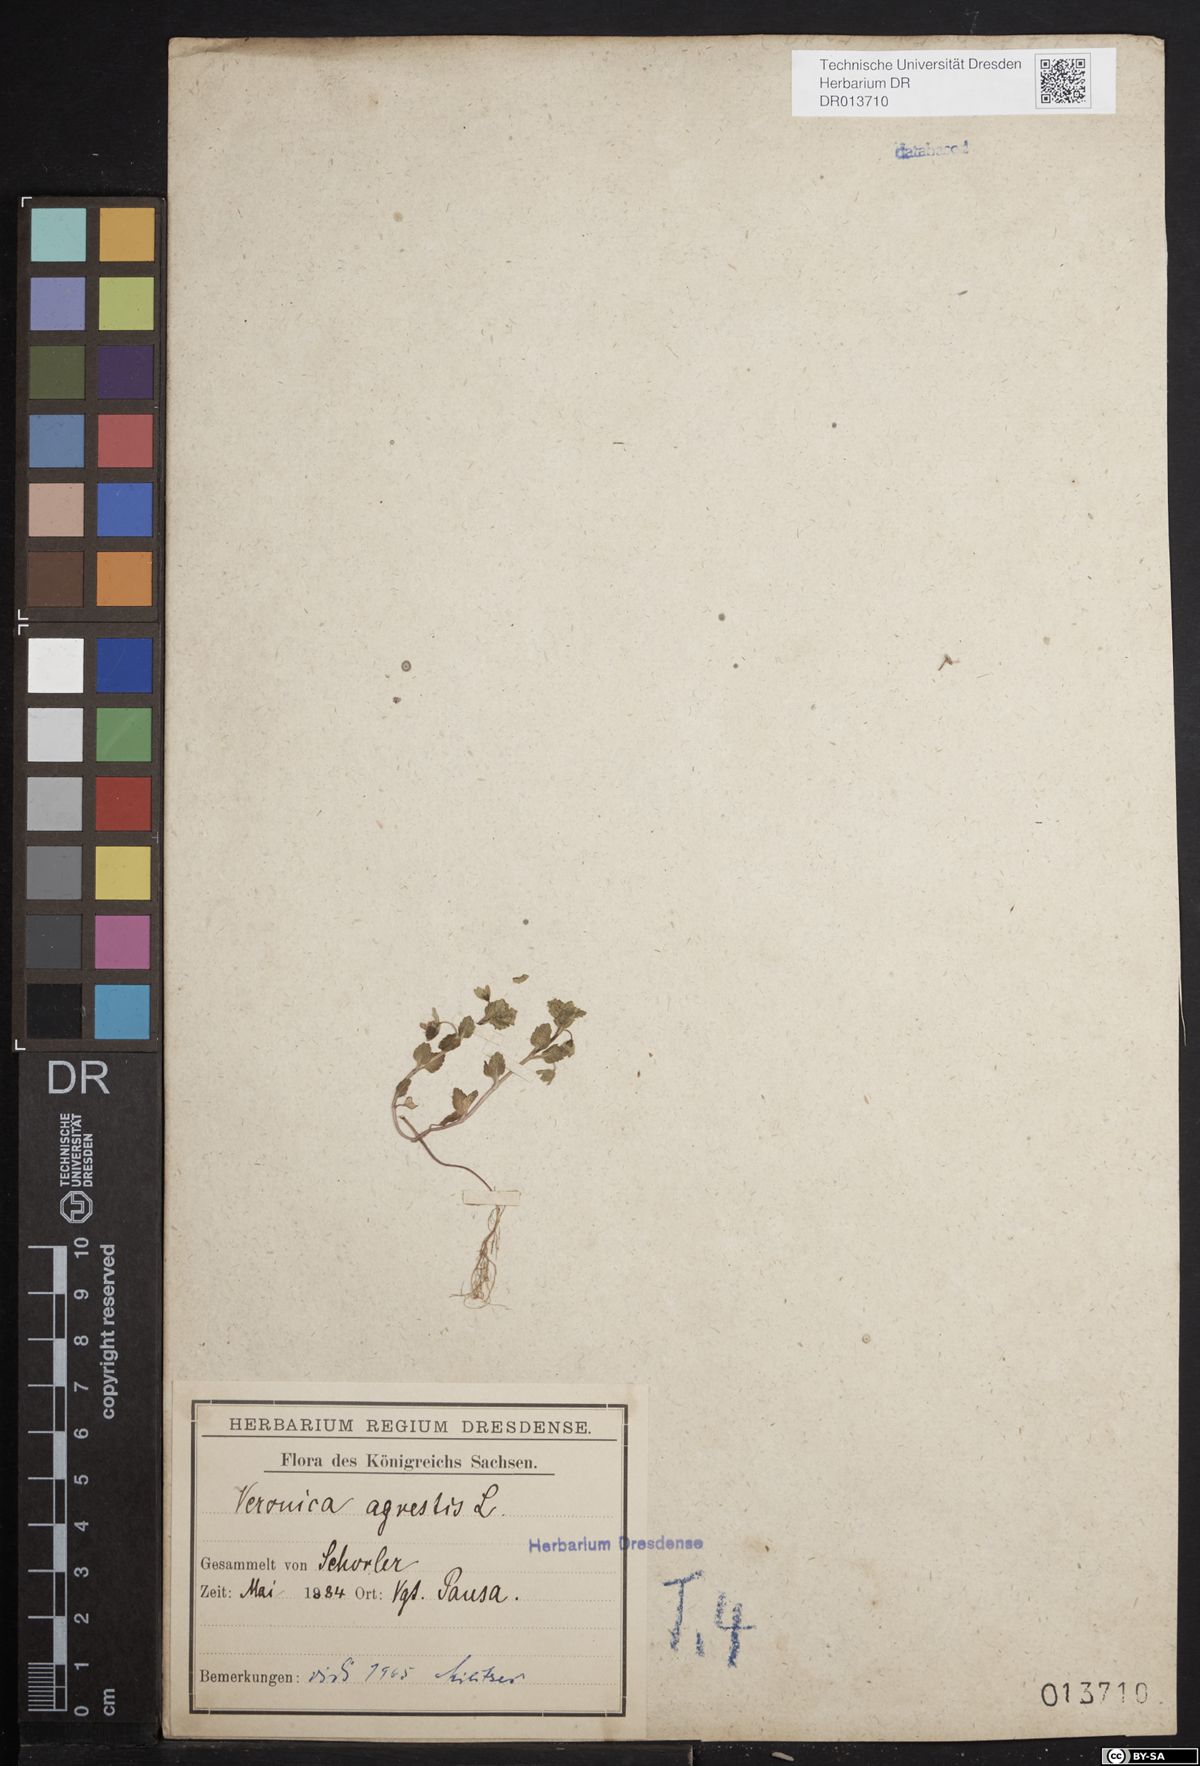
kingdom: Plantae
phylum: Tracheophyta
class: Magnoliopsida
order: Lamiales
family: Plantaginaceae
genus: Veronica
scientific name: Veronica agrestis
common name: Green field-speedwell
